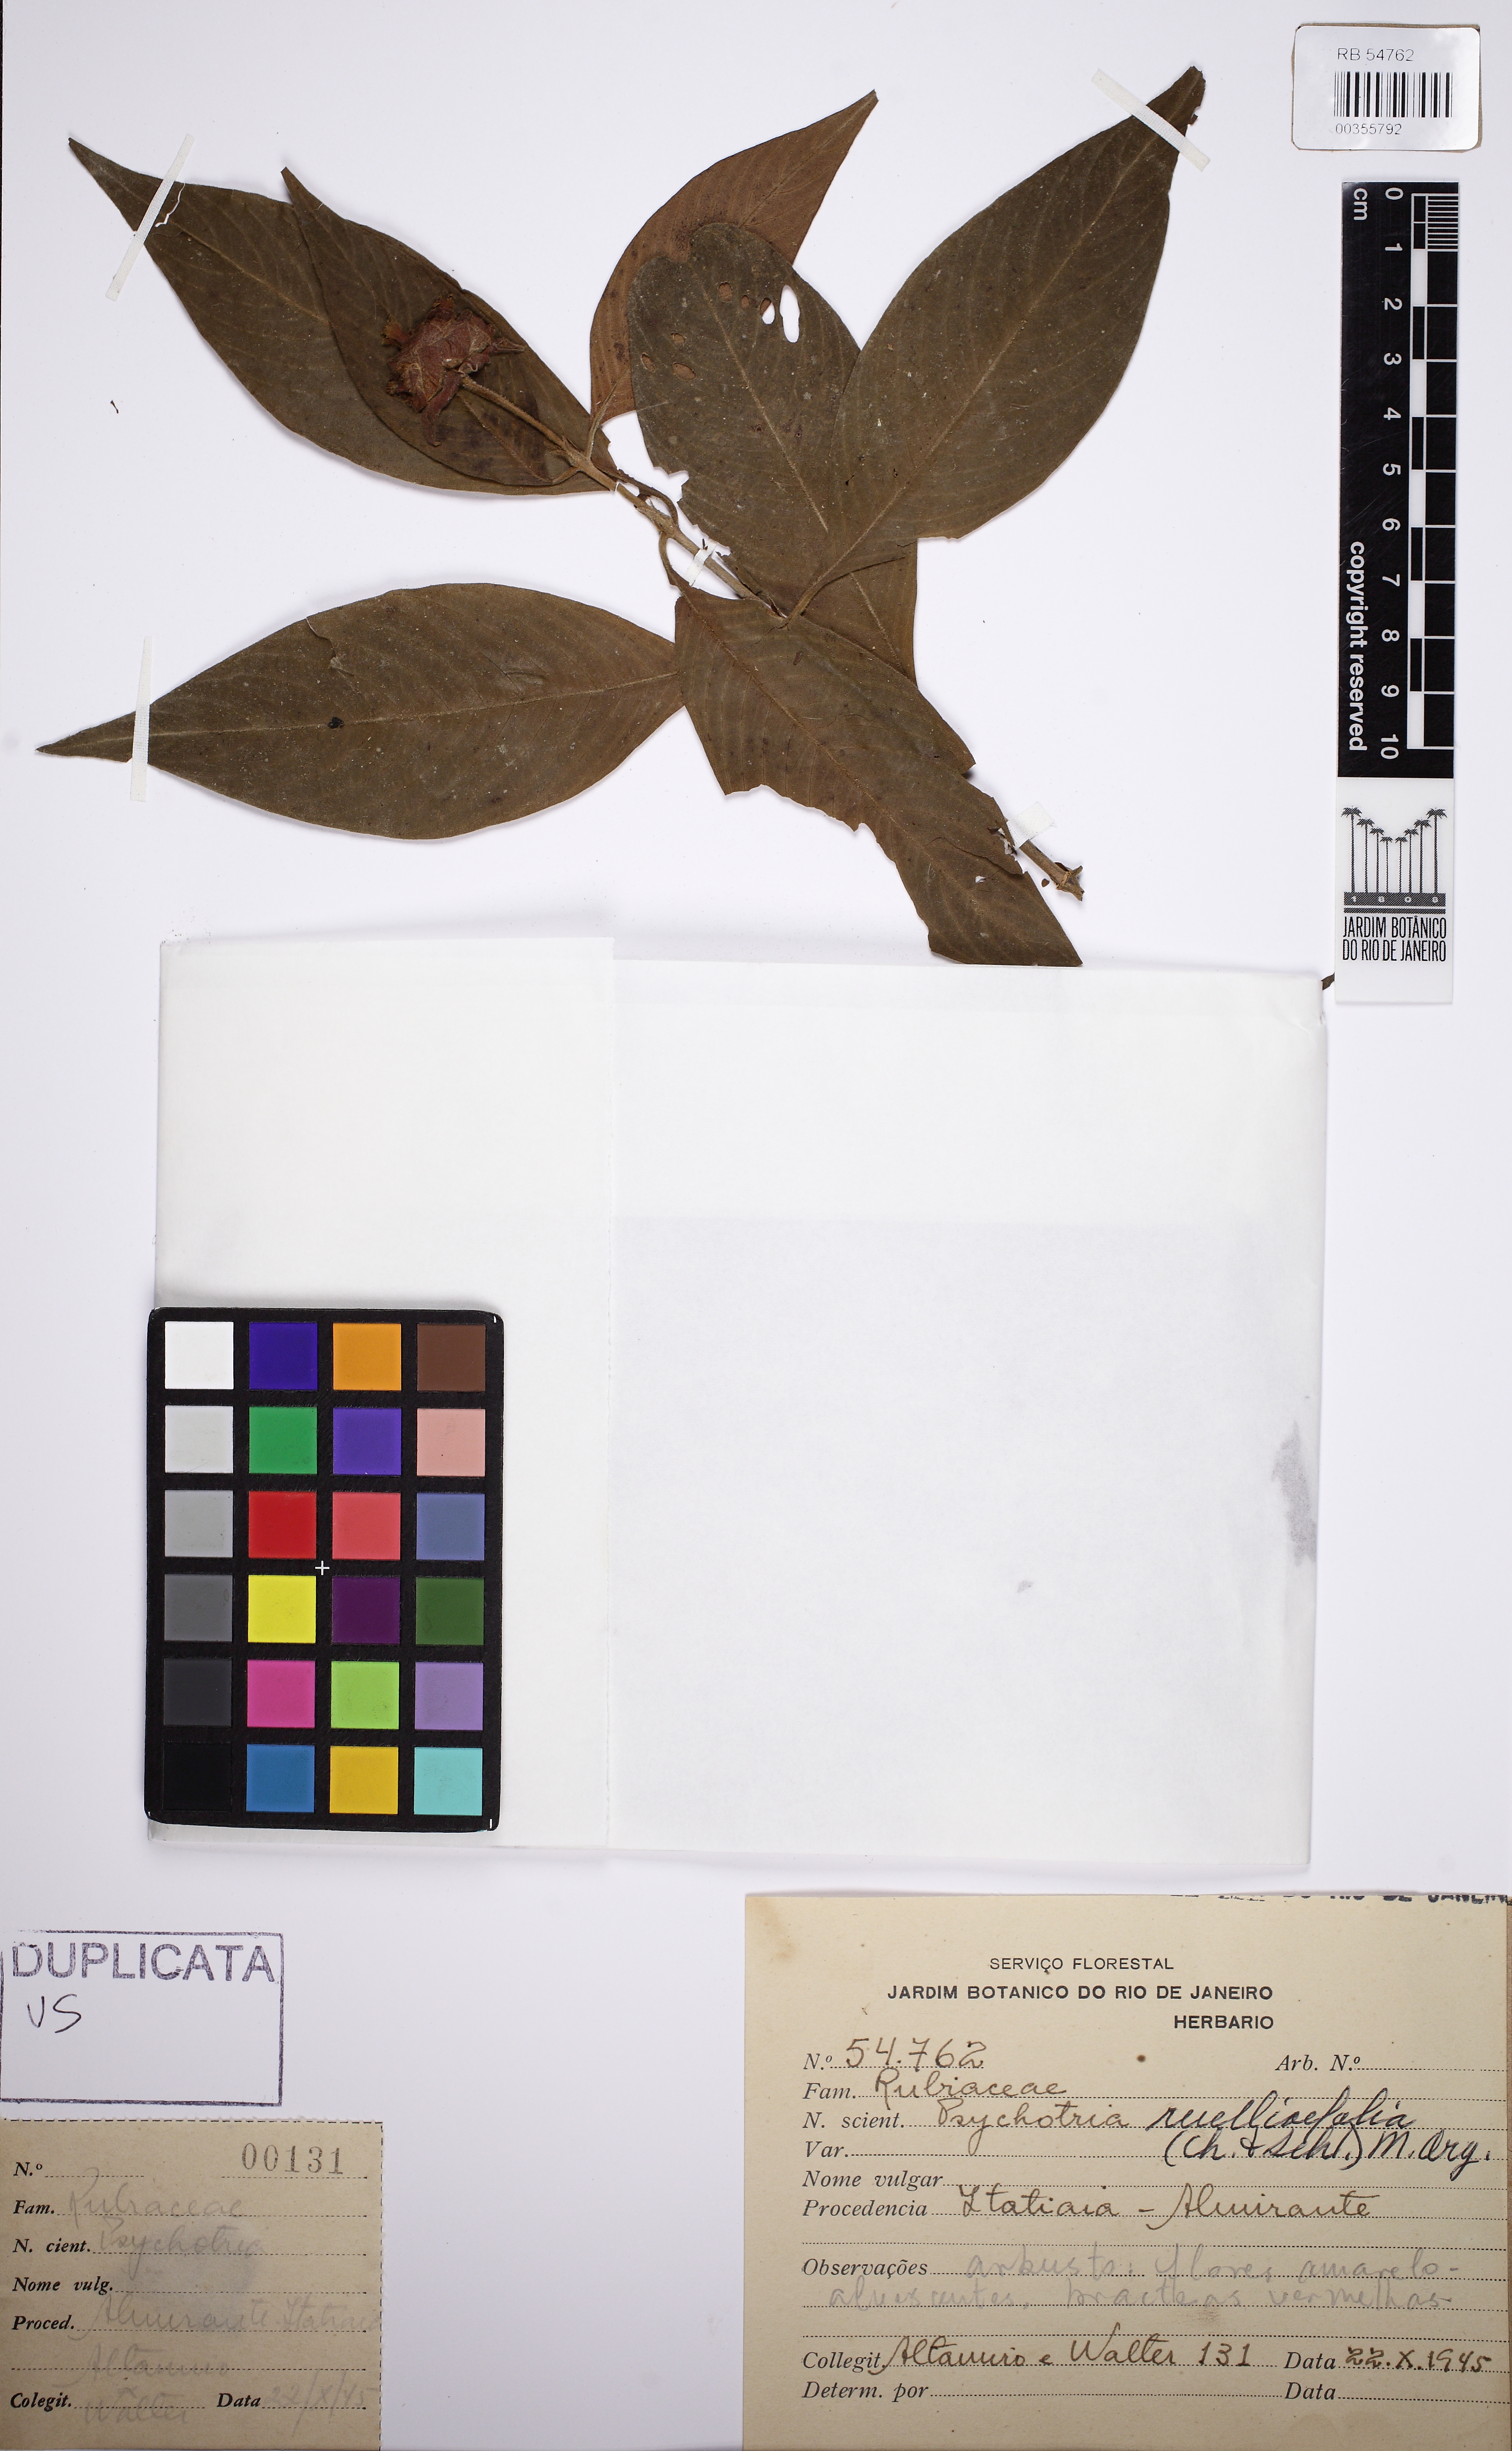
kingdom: Plantae
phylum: Tracheophyta
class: Magnoliopsida
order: Gentianales
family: Rubiaceae
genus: Palicourea
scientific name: Palicourea ruelliifolia
